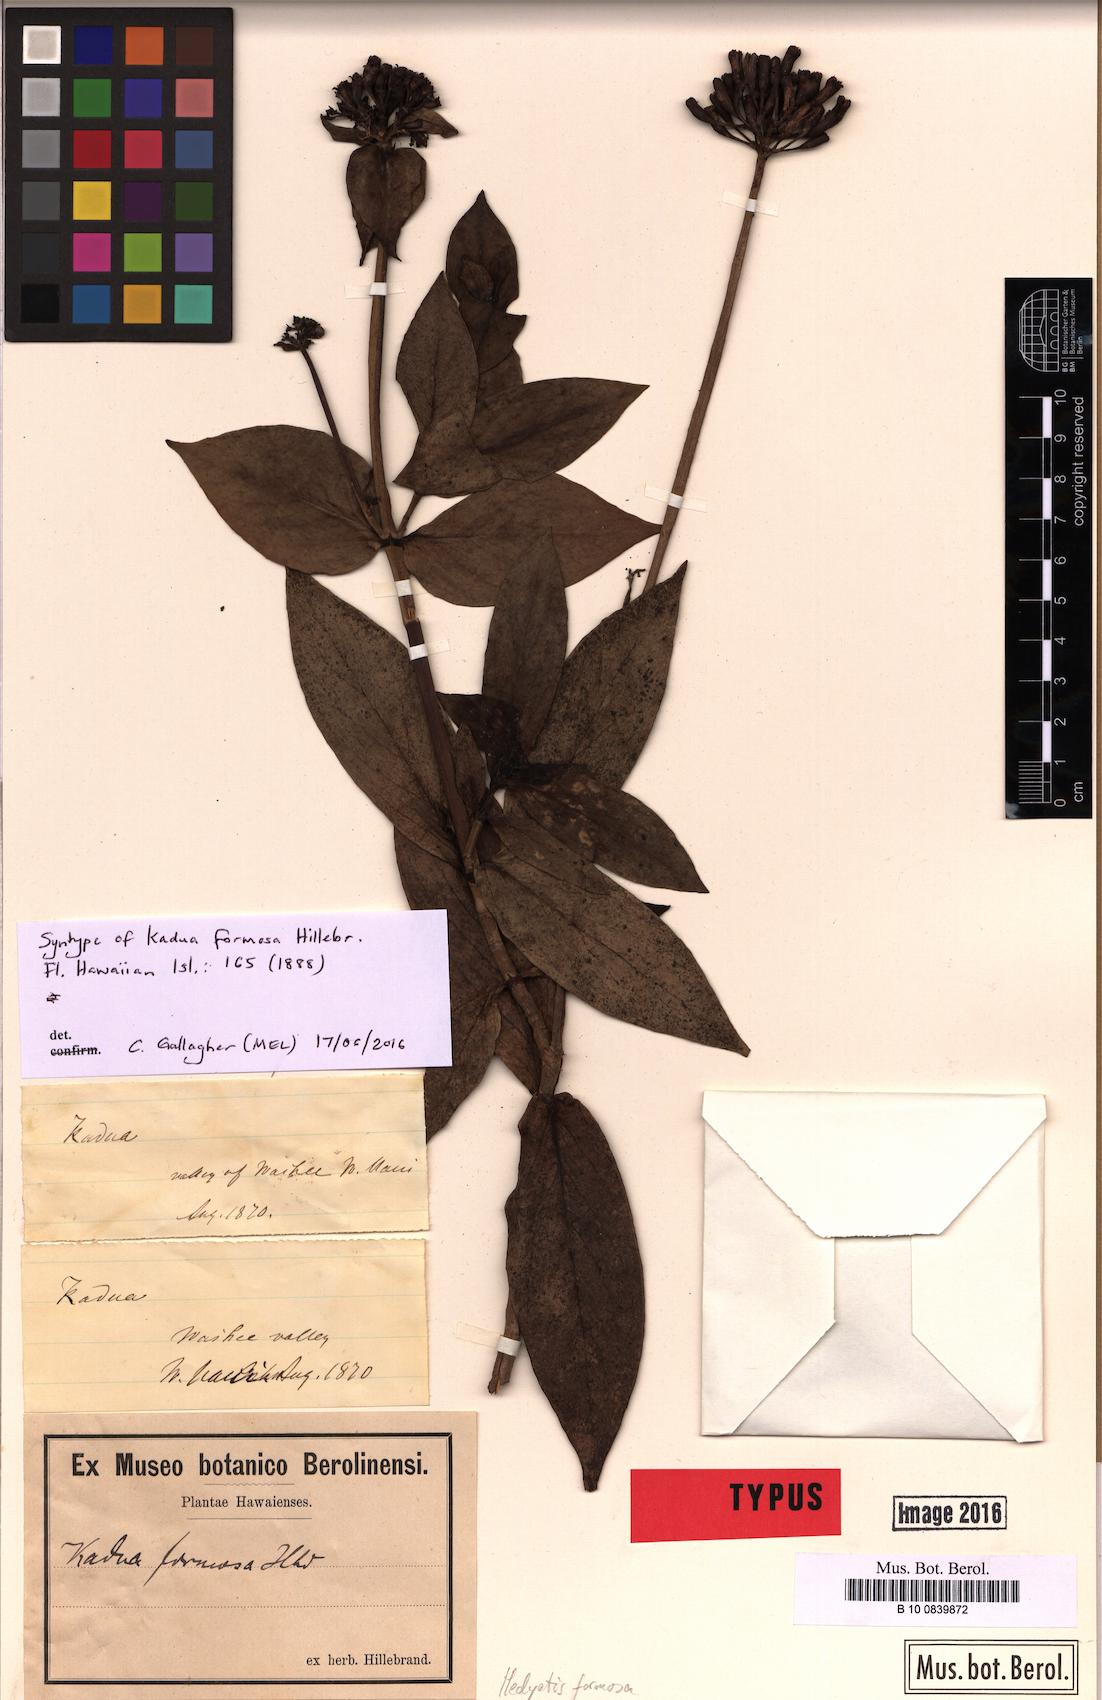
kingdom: Plantae
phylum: Tracheophyta
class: Magnoliopsida
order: Gentianales
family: Rubiaceae
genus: Kadua
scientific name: Kadua formosa
